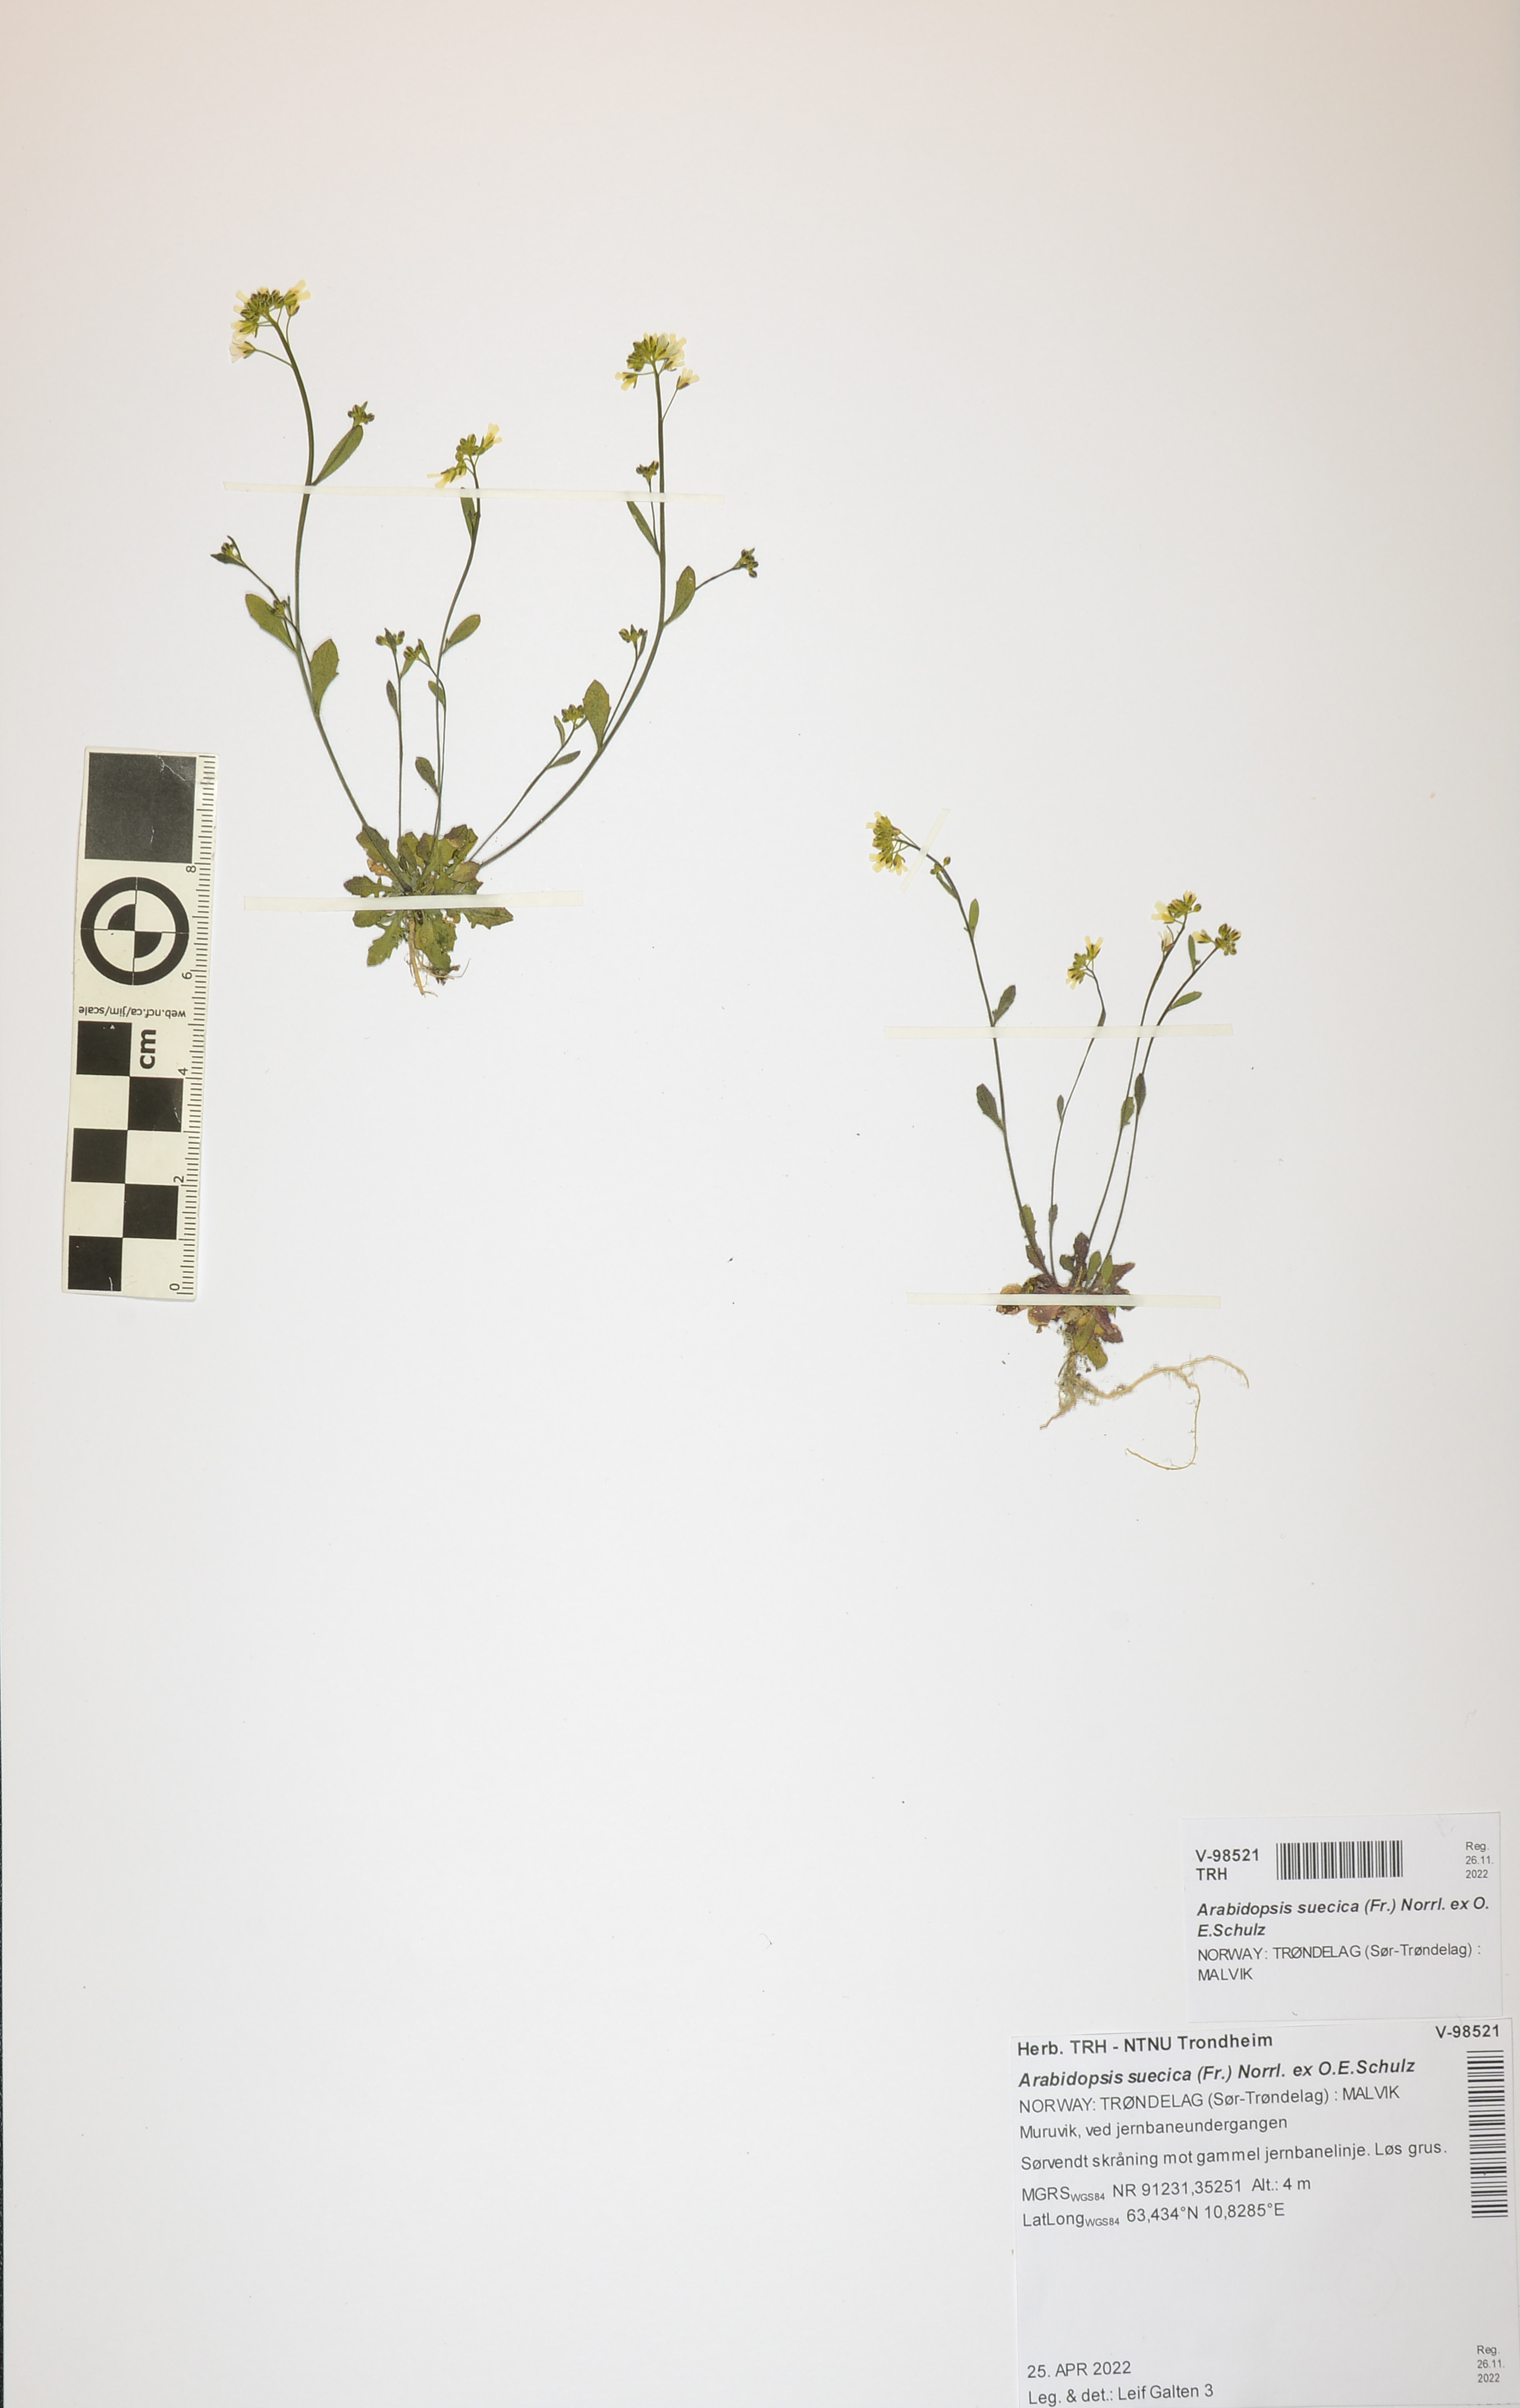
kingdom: Plantae
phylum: Tracheophyta
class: Magnoliopsida
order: Brassicales
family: Brassicaceae
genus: Arabidopsis
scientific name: Arabidopsis suecica
